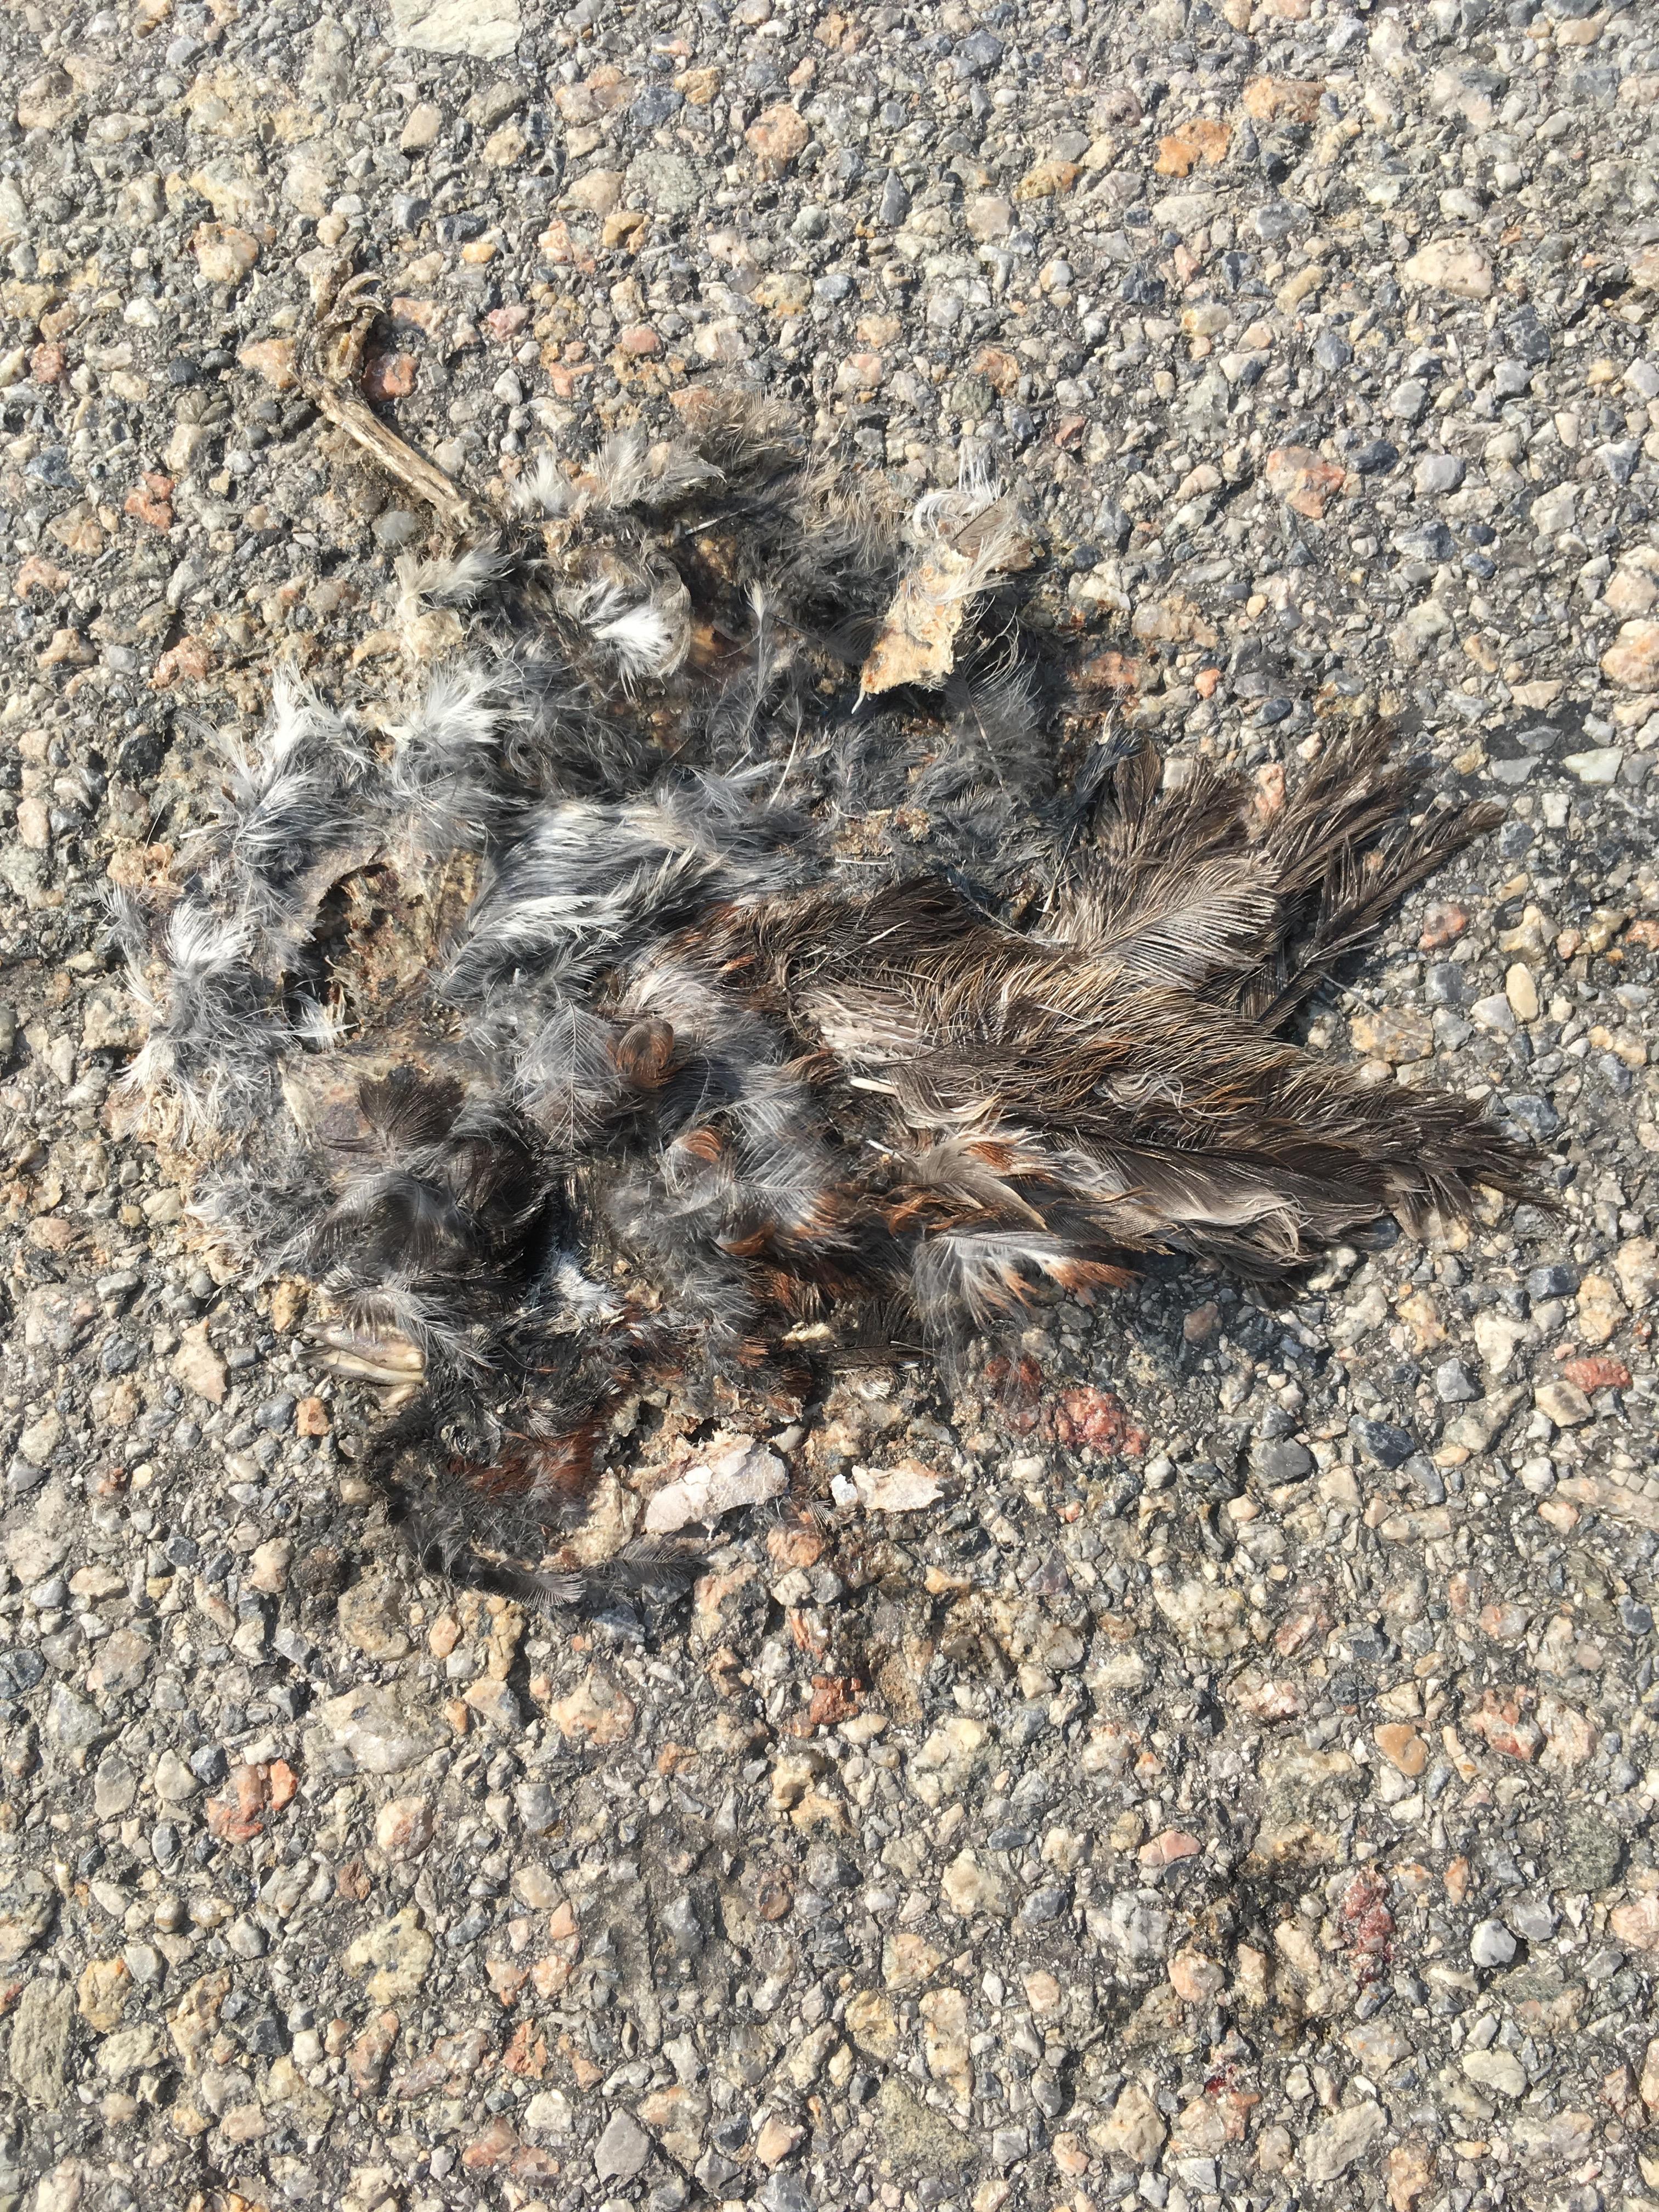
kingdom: Animalia
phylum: Chordata
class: Aves
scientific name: Aves
